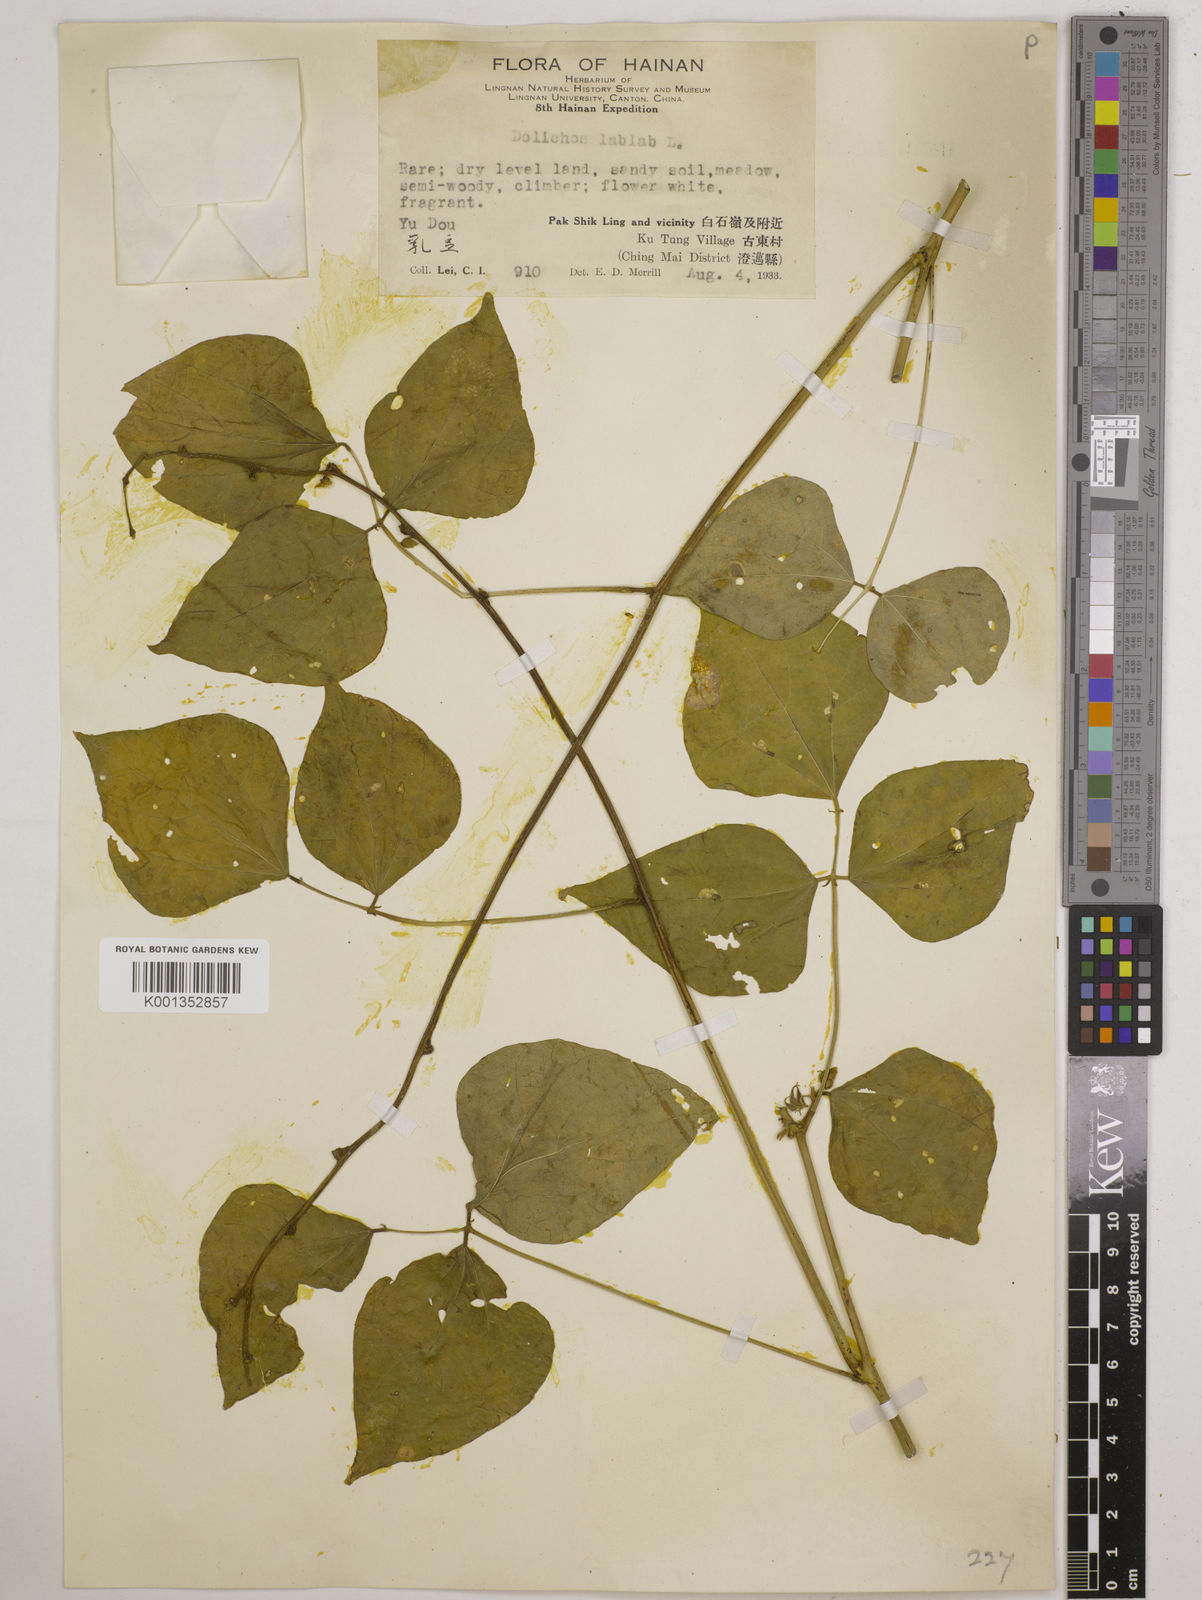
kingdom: Plantae
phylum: Tracheophyta
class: Magnoliopsida
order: Fabales
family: Fabaceae
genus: Lablab
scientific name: Lablab purpureus
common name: Lablab-bean
